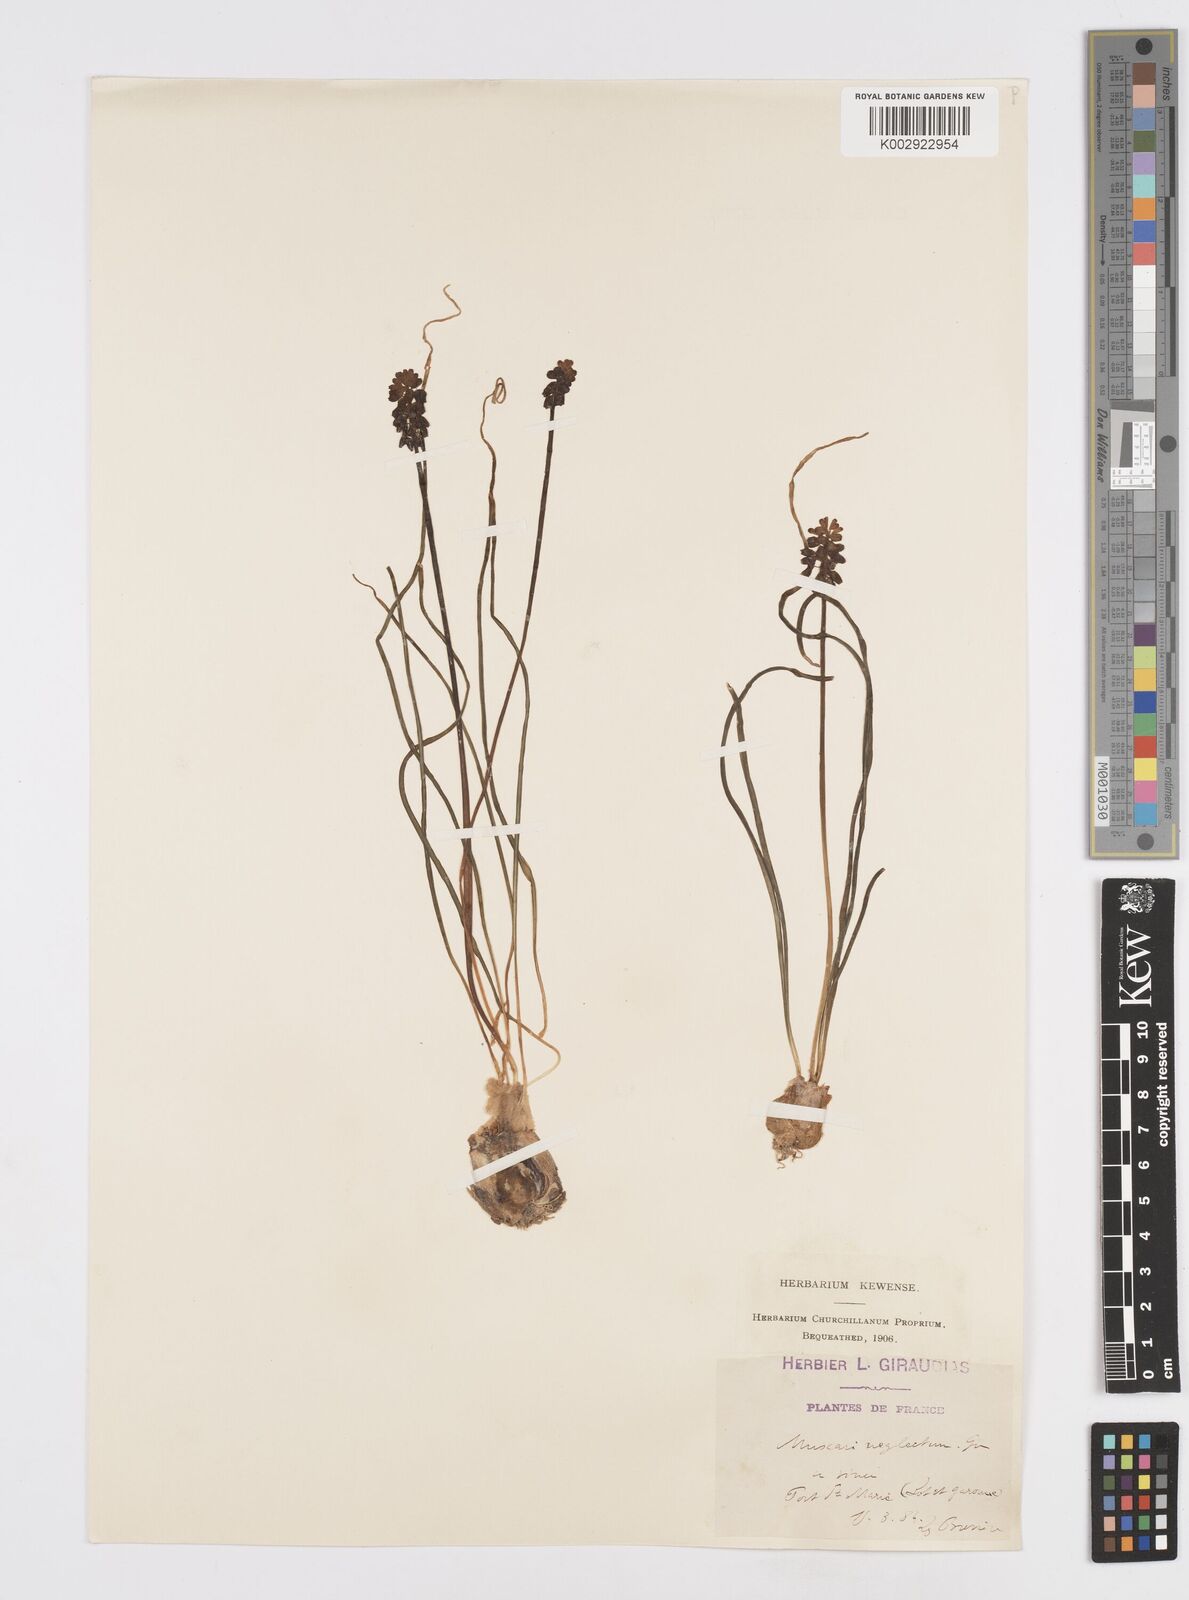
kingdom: Plantae
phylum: Tracheophyta
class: Liliopsida
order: Asparagales
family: Asparagaceae
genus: Muscari
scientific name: Muscari neglectum
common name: Grape-hyacinth
